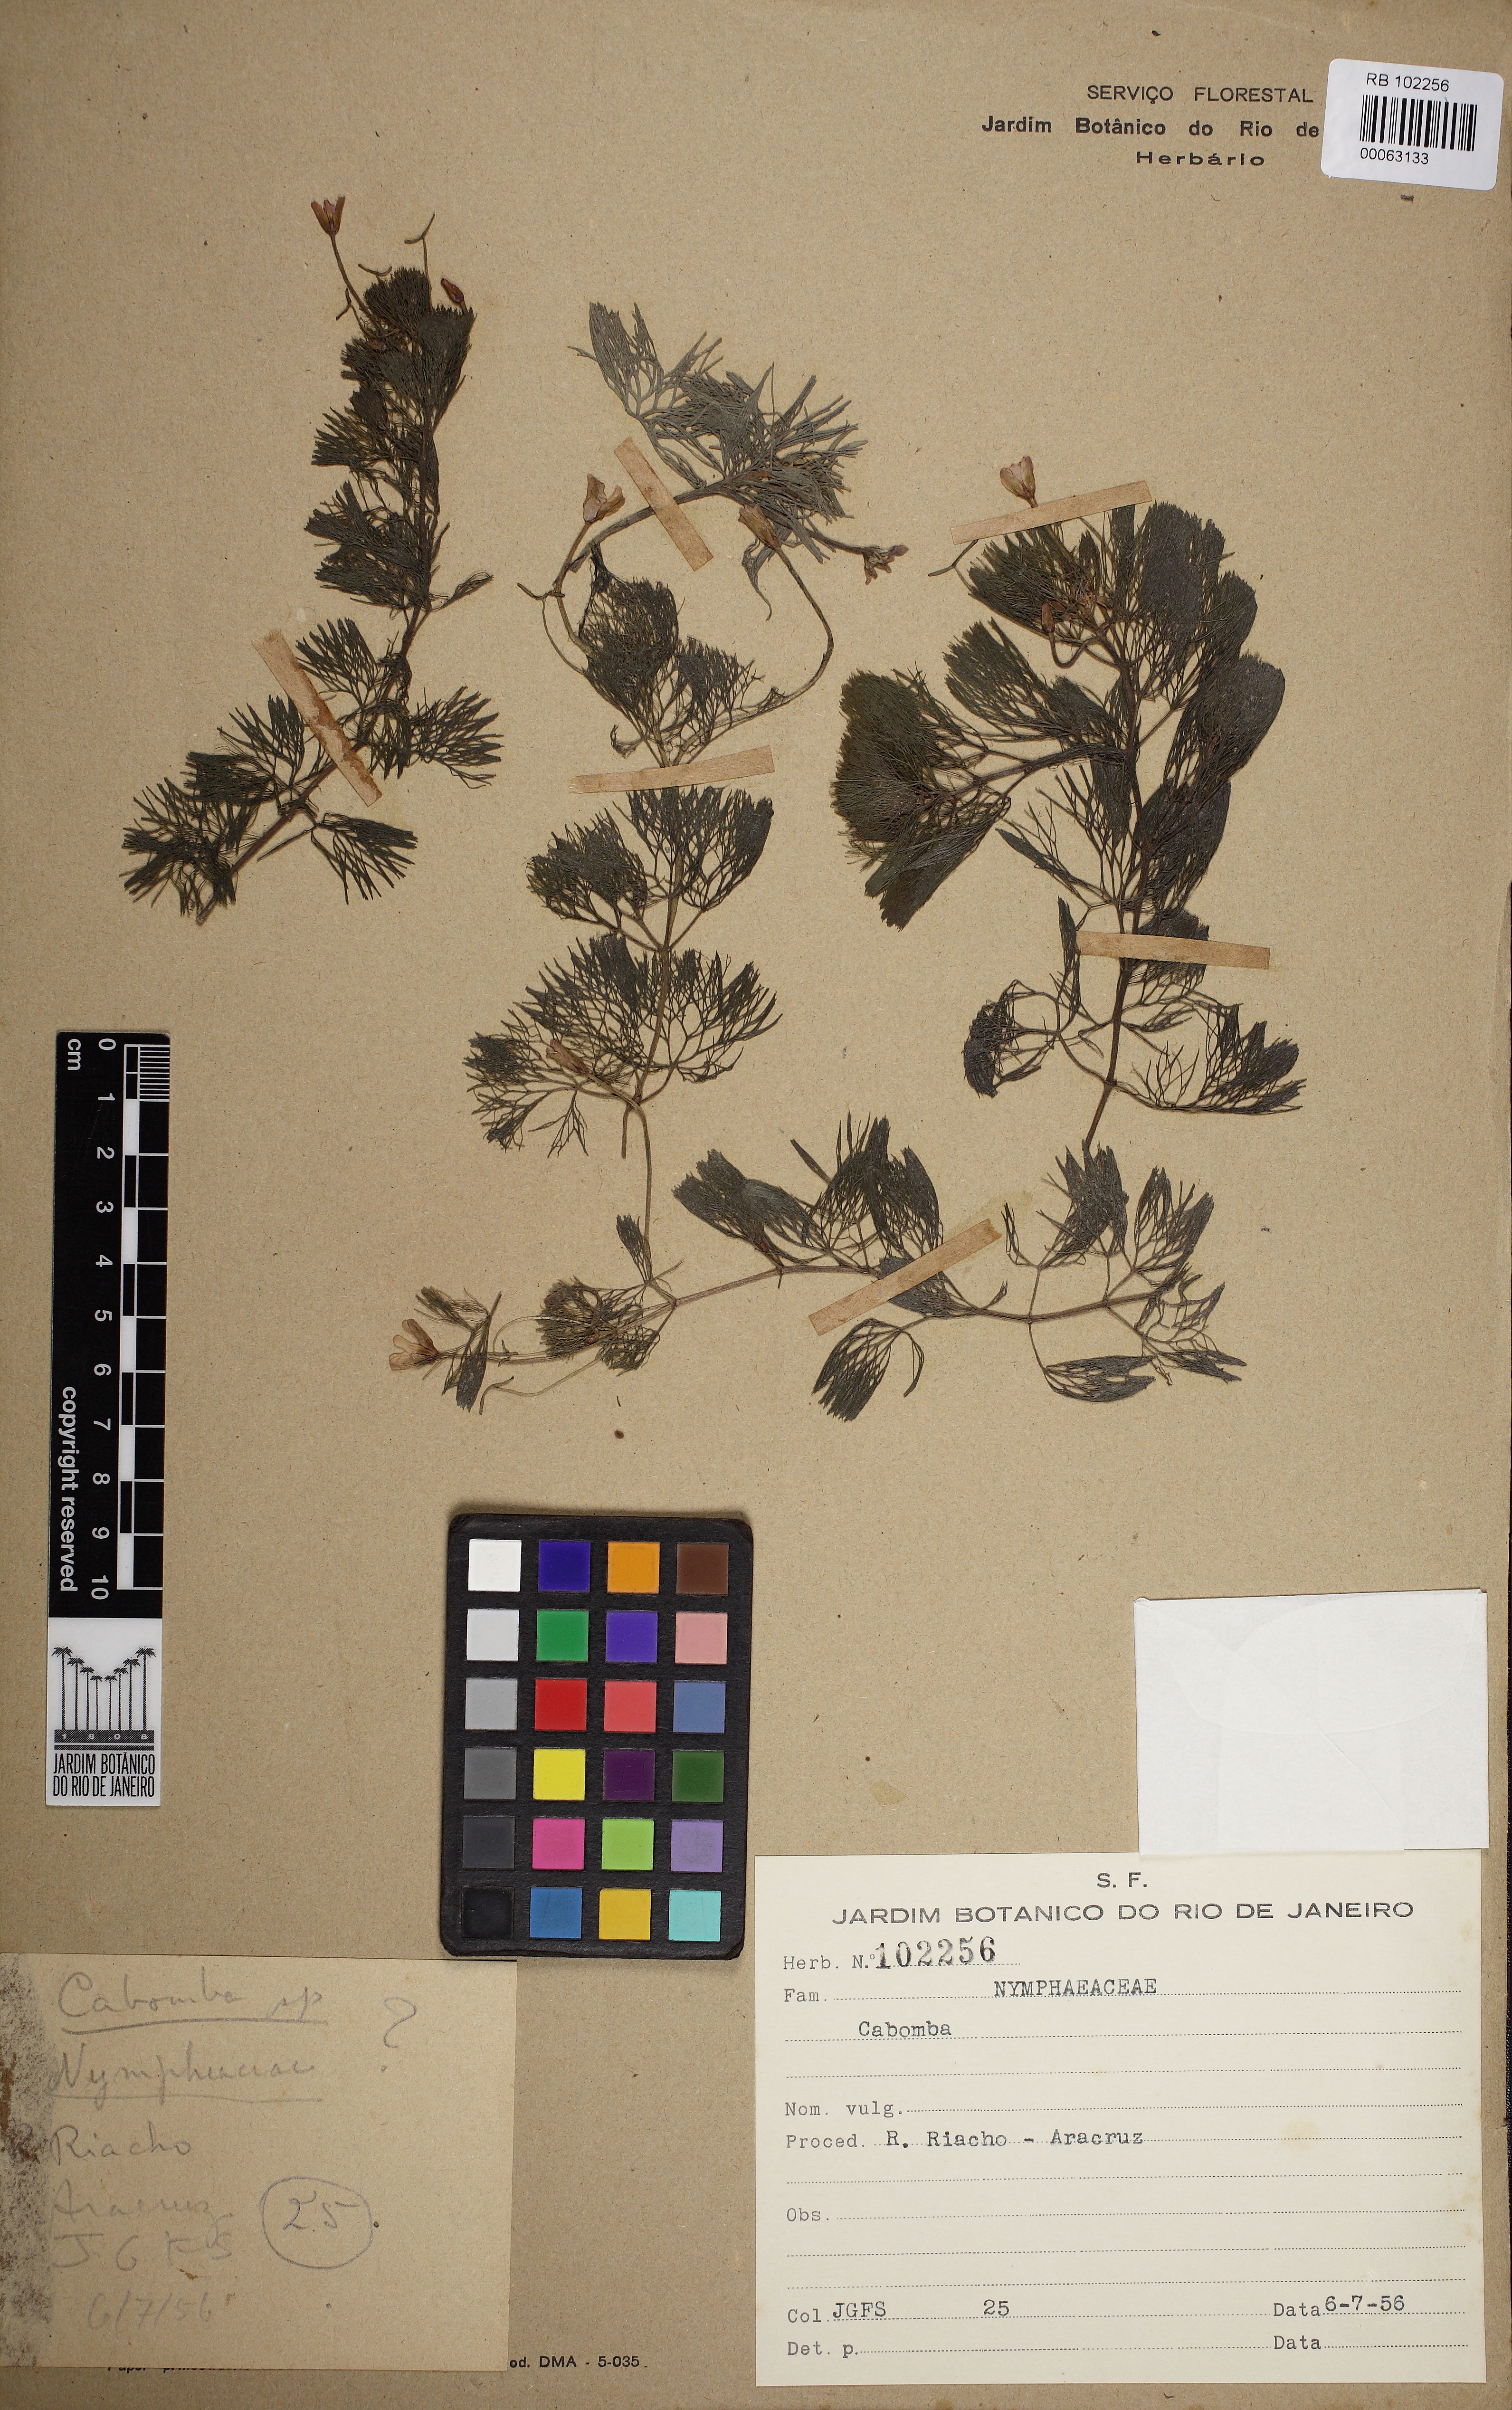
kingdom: Plantae
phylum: Tracheophyta
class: Magnoliopsida
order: Nymphaeales
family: Cabombaceae
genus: Cabomba
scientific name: Cabomba
